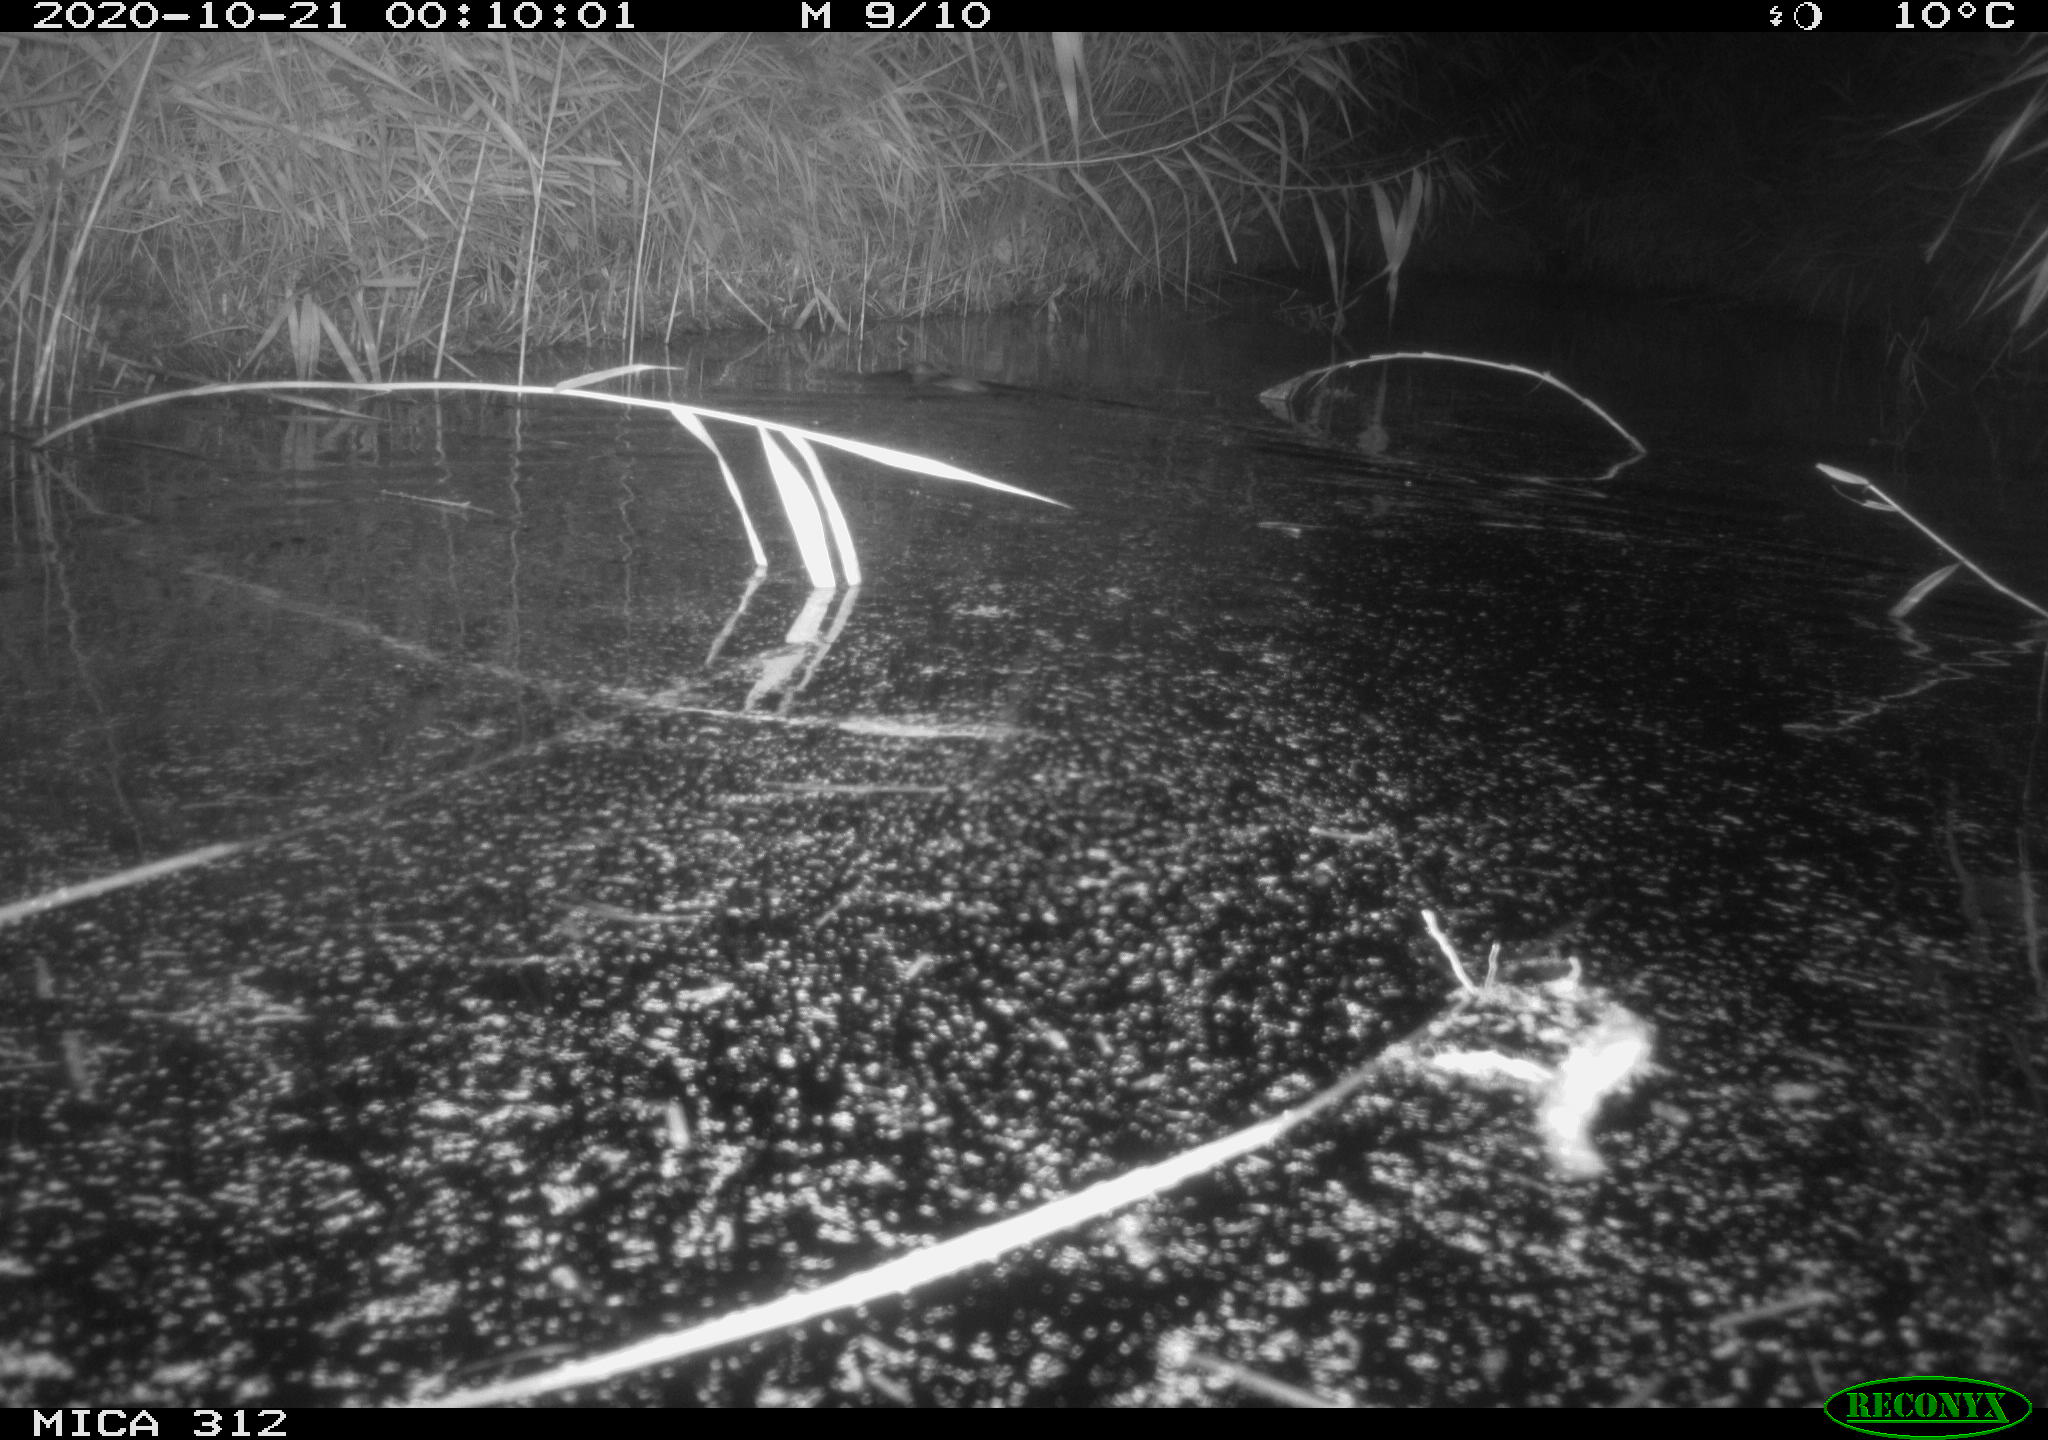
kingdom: Animalia
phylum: Chordata
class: Mammalia
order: Rodentia
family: Muridae
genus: Rattus
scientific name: Rattus norvegicus
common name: Brown rat
